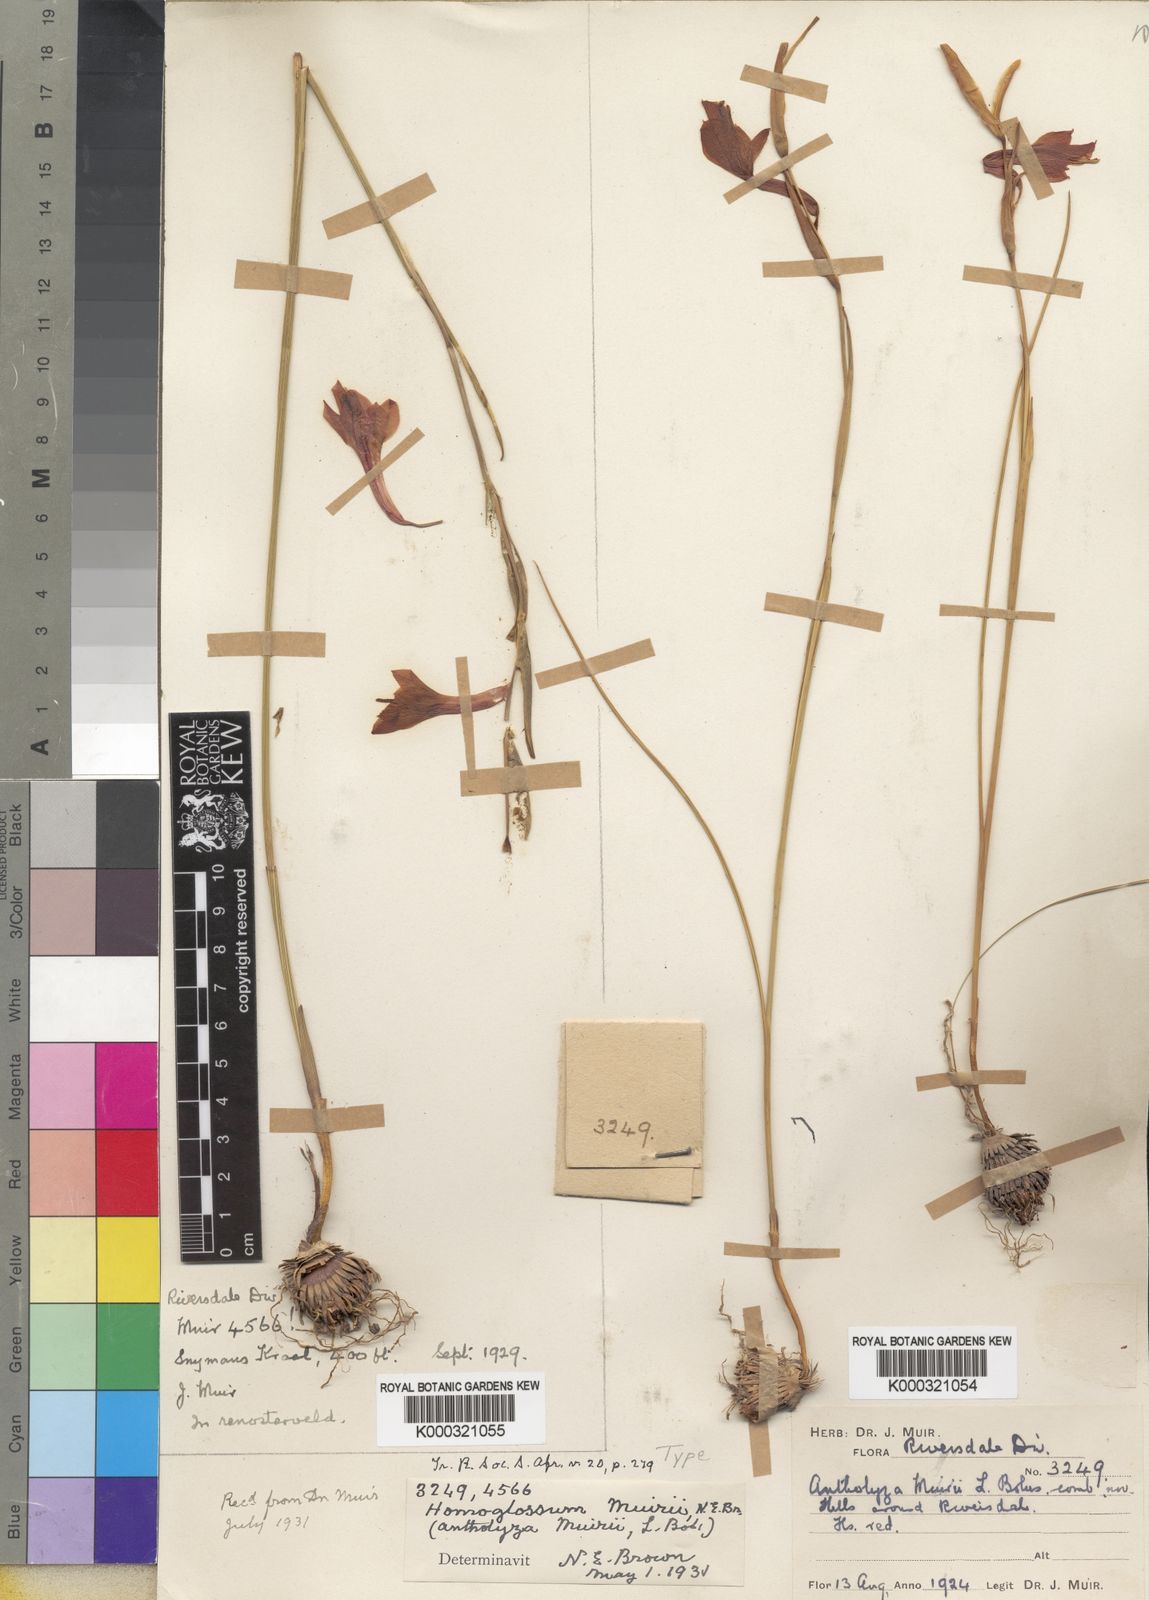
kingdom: Plantae
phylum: Tracheophyta
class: Liliopsida
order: Asparagales
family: Iridaceae
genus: Gladiolus
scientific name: Gladiolus involutus
